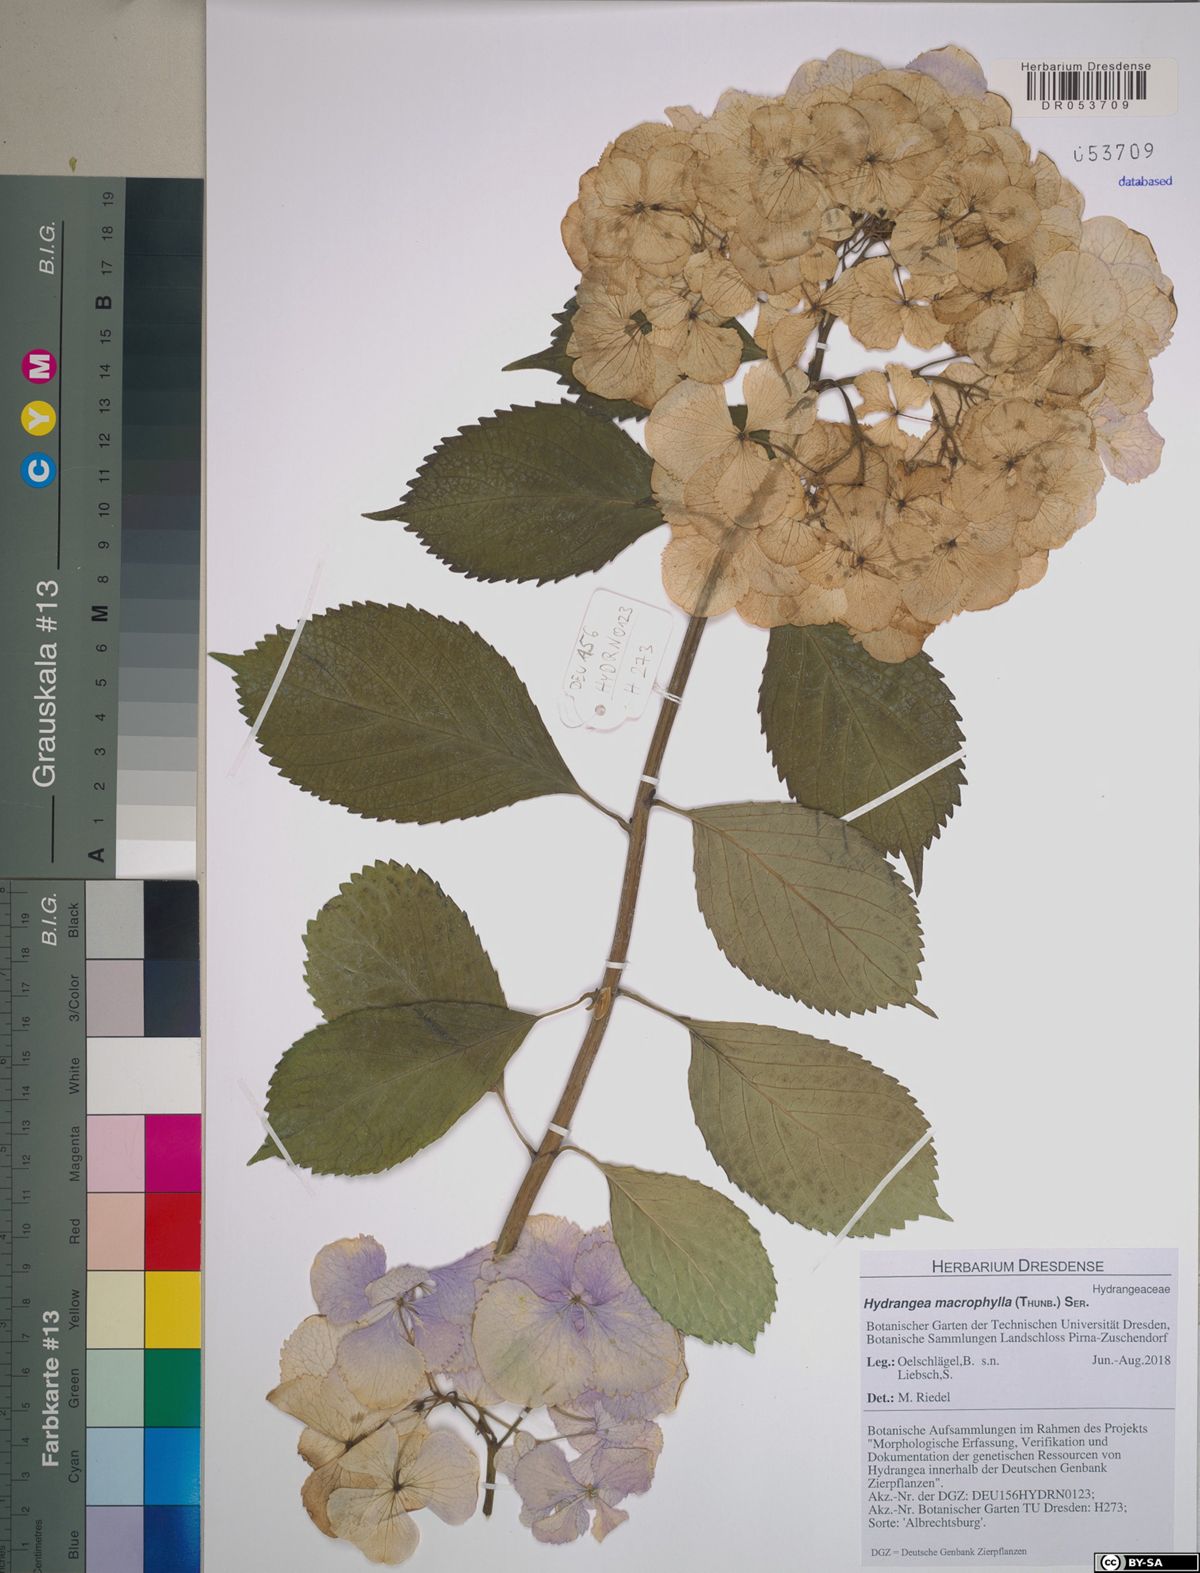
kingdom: Plantae
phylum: Tracheophyta
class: Magnoliopsida
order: Cornales
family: Hydrangeaceae
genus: Hydrangea
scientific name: Hydrangea macrophylla
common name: Hydrangea
